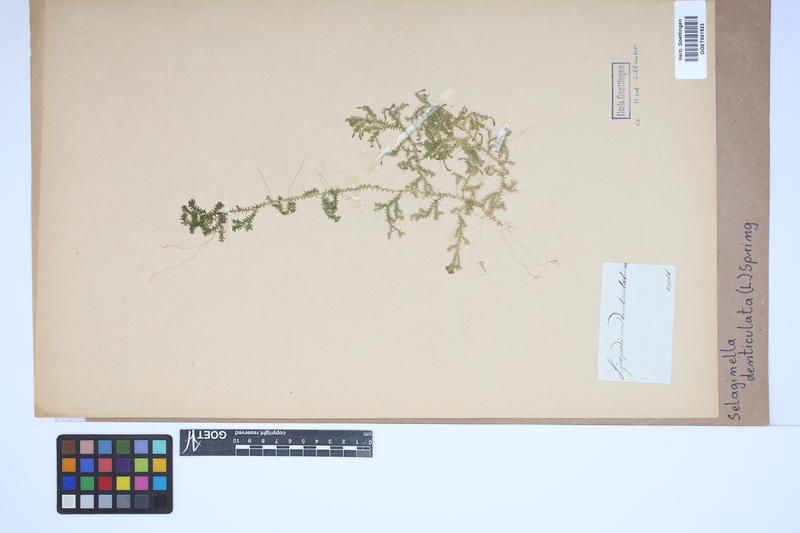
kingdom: Plantae
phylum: Tracheophyta
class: Lycopodiopsida
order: Selaginellales
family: Selaginellaceae
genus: Selaginella
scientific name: Selaginella denticulata
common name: Toothed-leaved clubmoss
